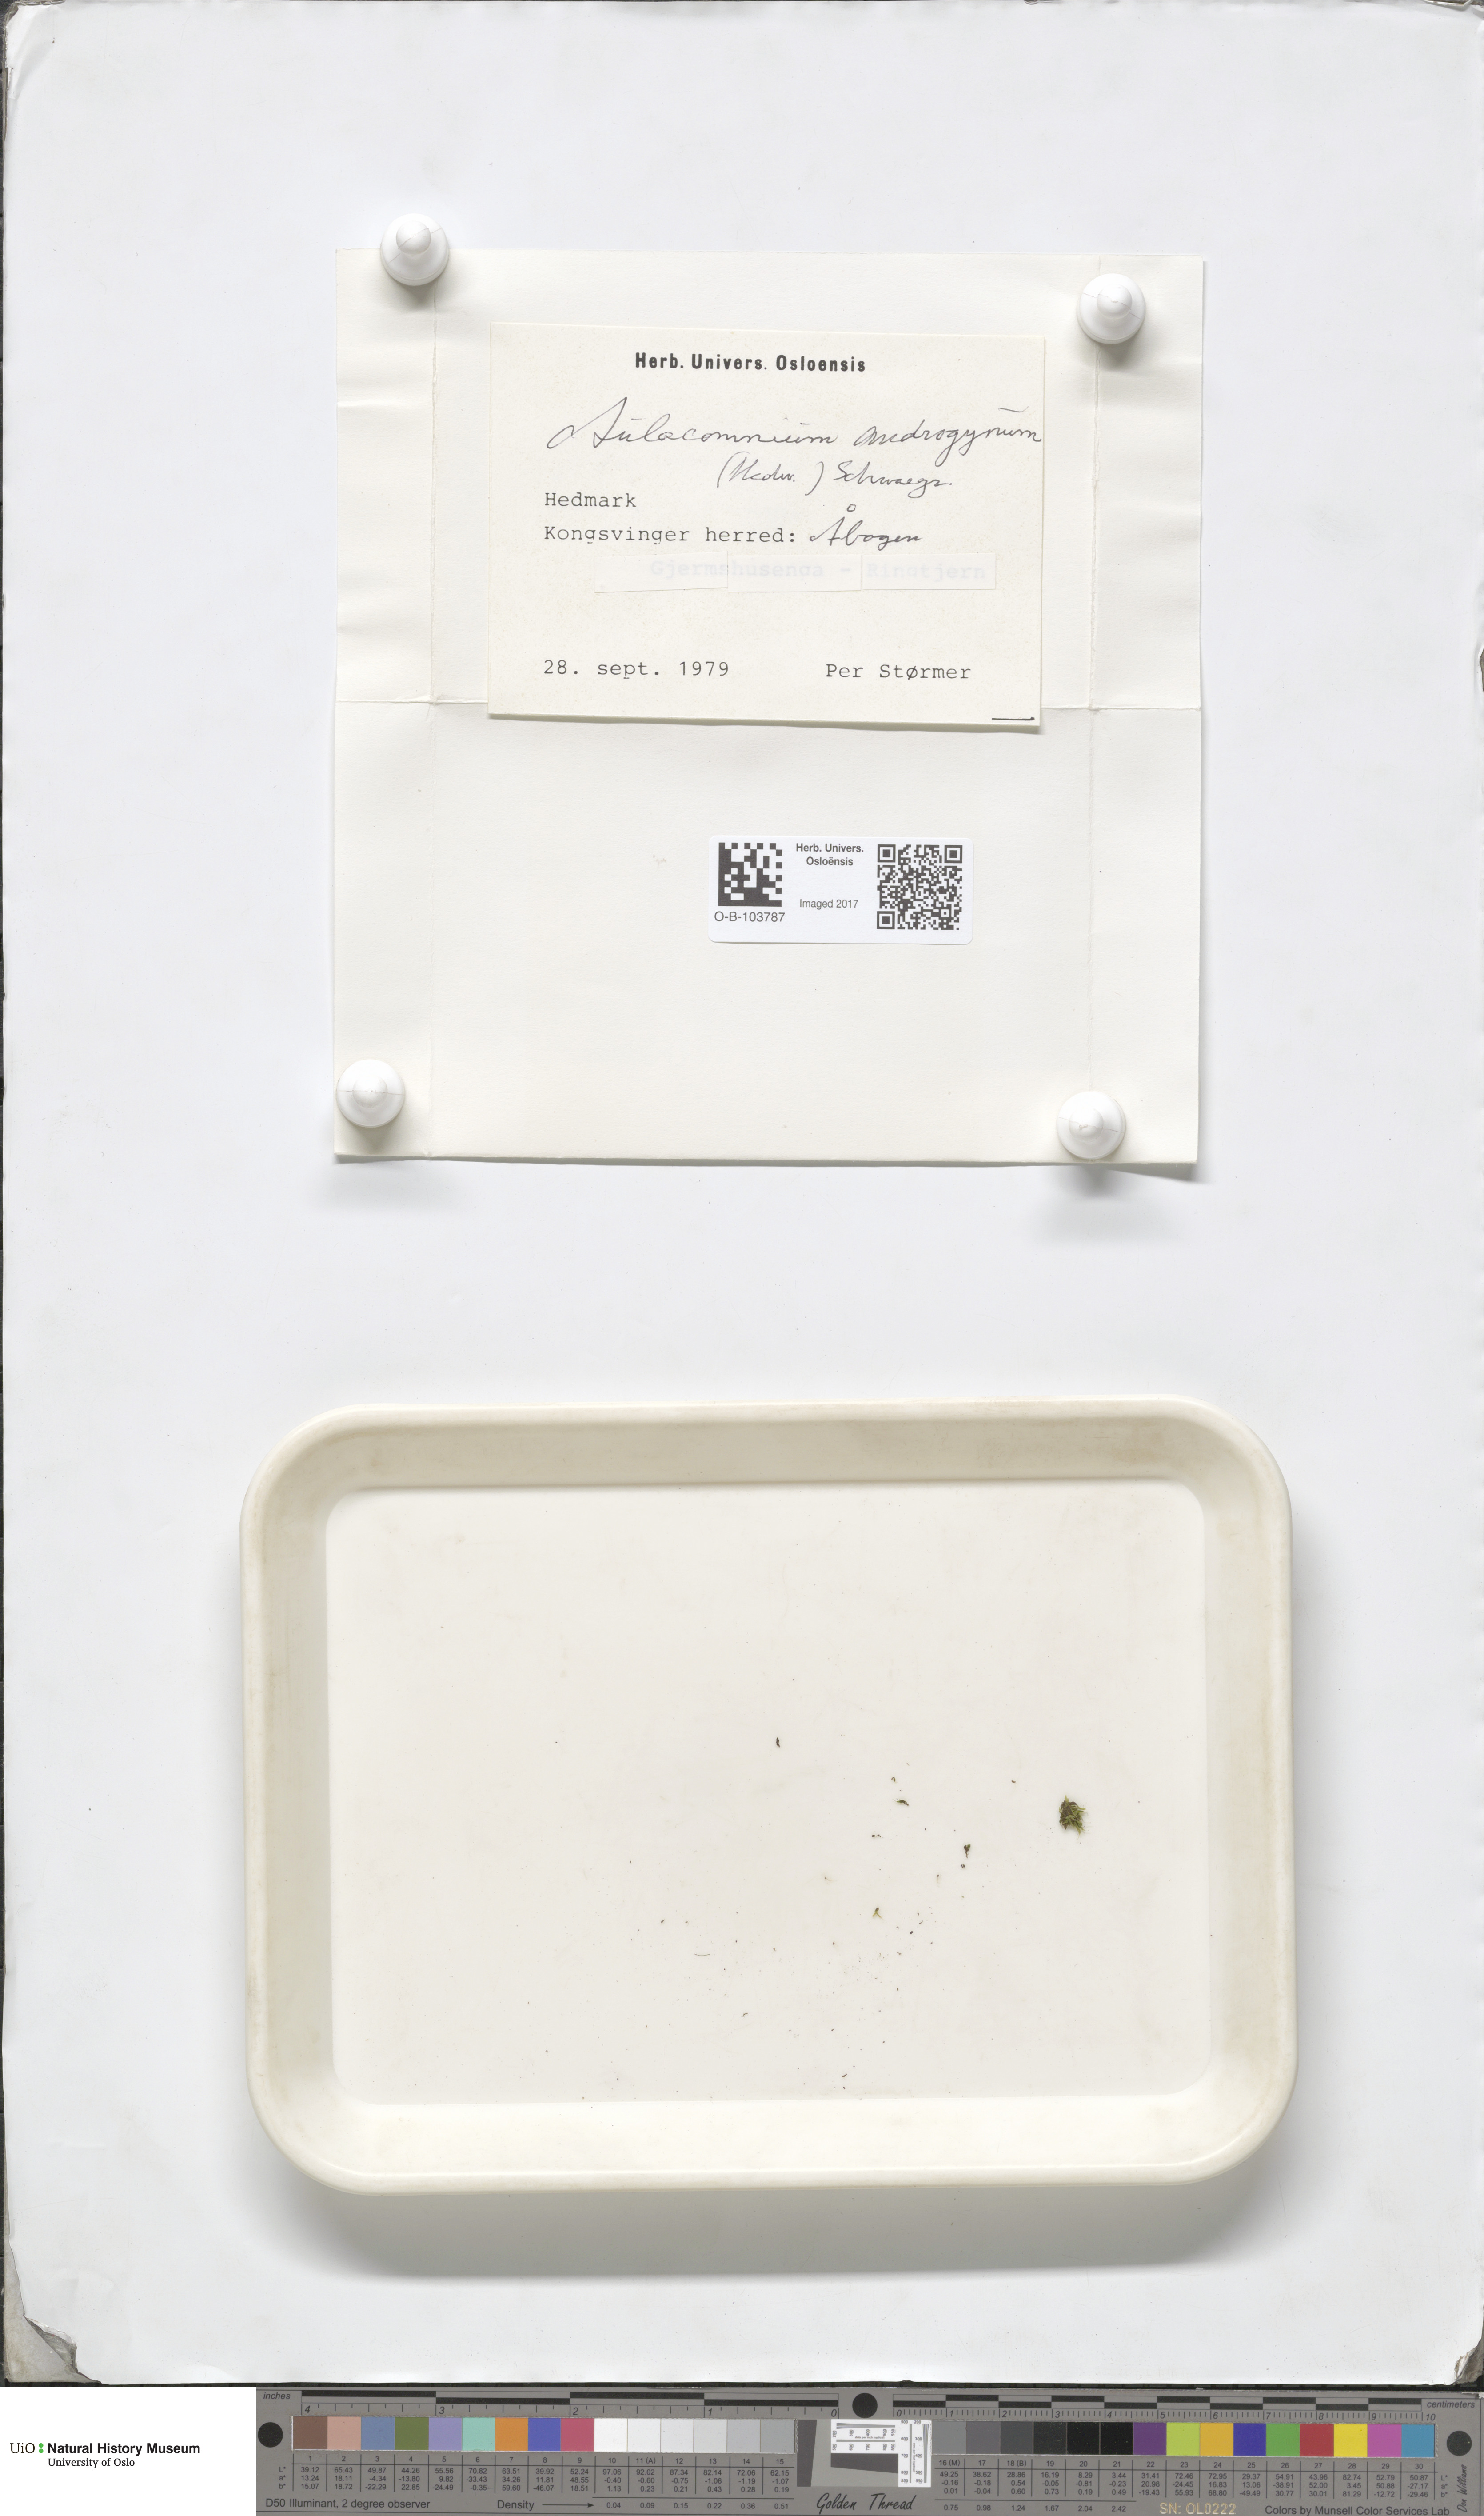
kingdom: Plantae
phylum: Bryophyta
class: Bryopsida
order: Aulacomniales
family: Aulacomniaceae
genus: Aulacomnium
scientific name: Aulacomnium androgynum
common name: Little groove moss
